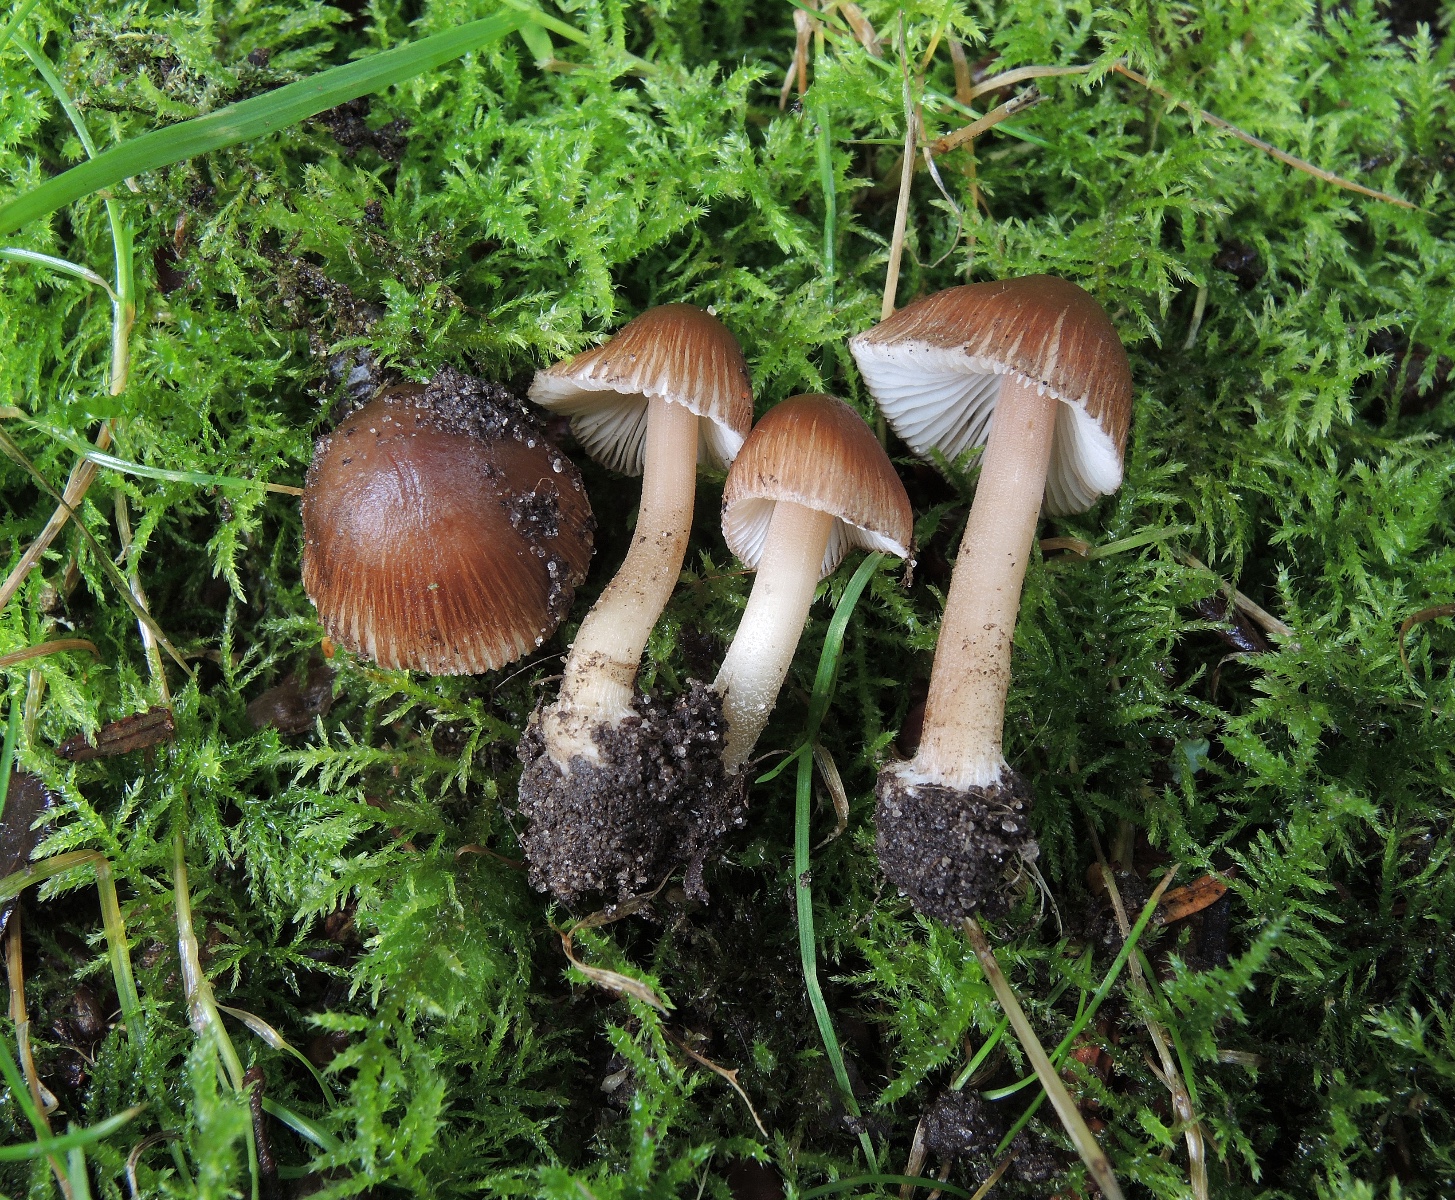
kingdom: Fungi
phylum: Basidiomycota
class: Agaricomycetes
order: Agaricales
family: Inocybaceae
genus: Inocybe
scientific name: Inocybe asterospora
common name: stjernesporet trævlhat
